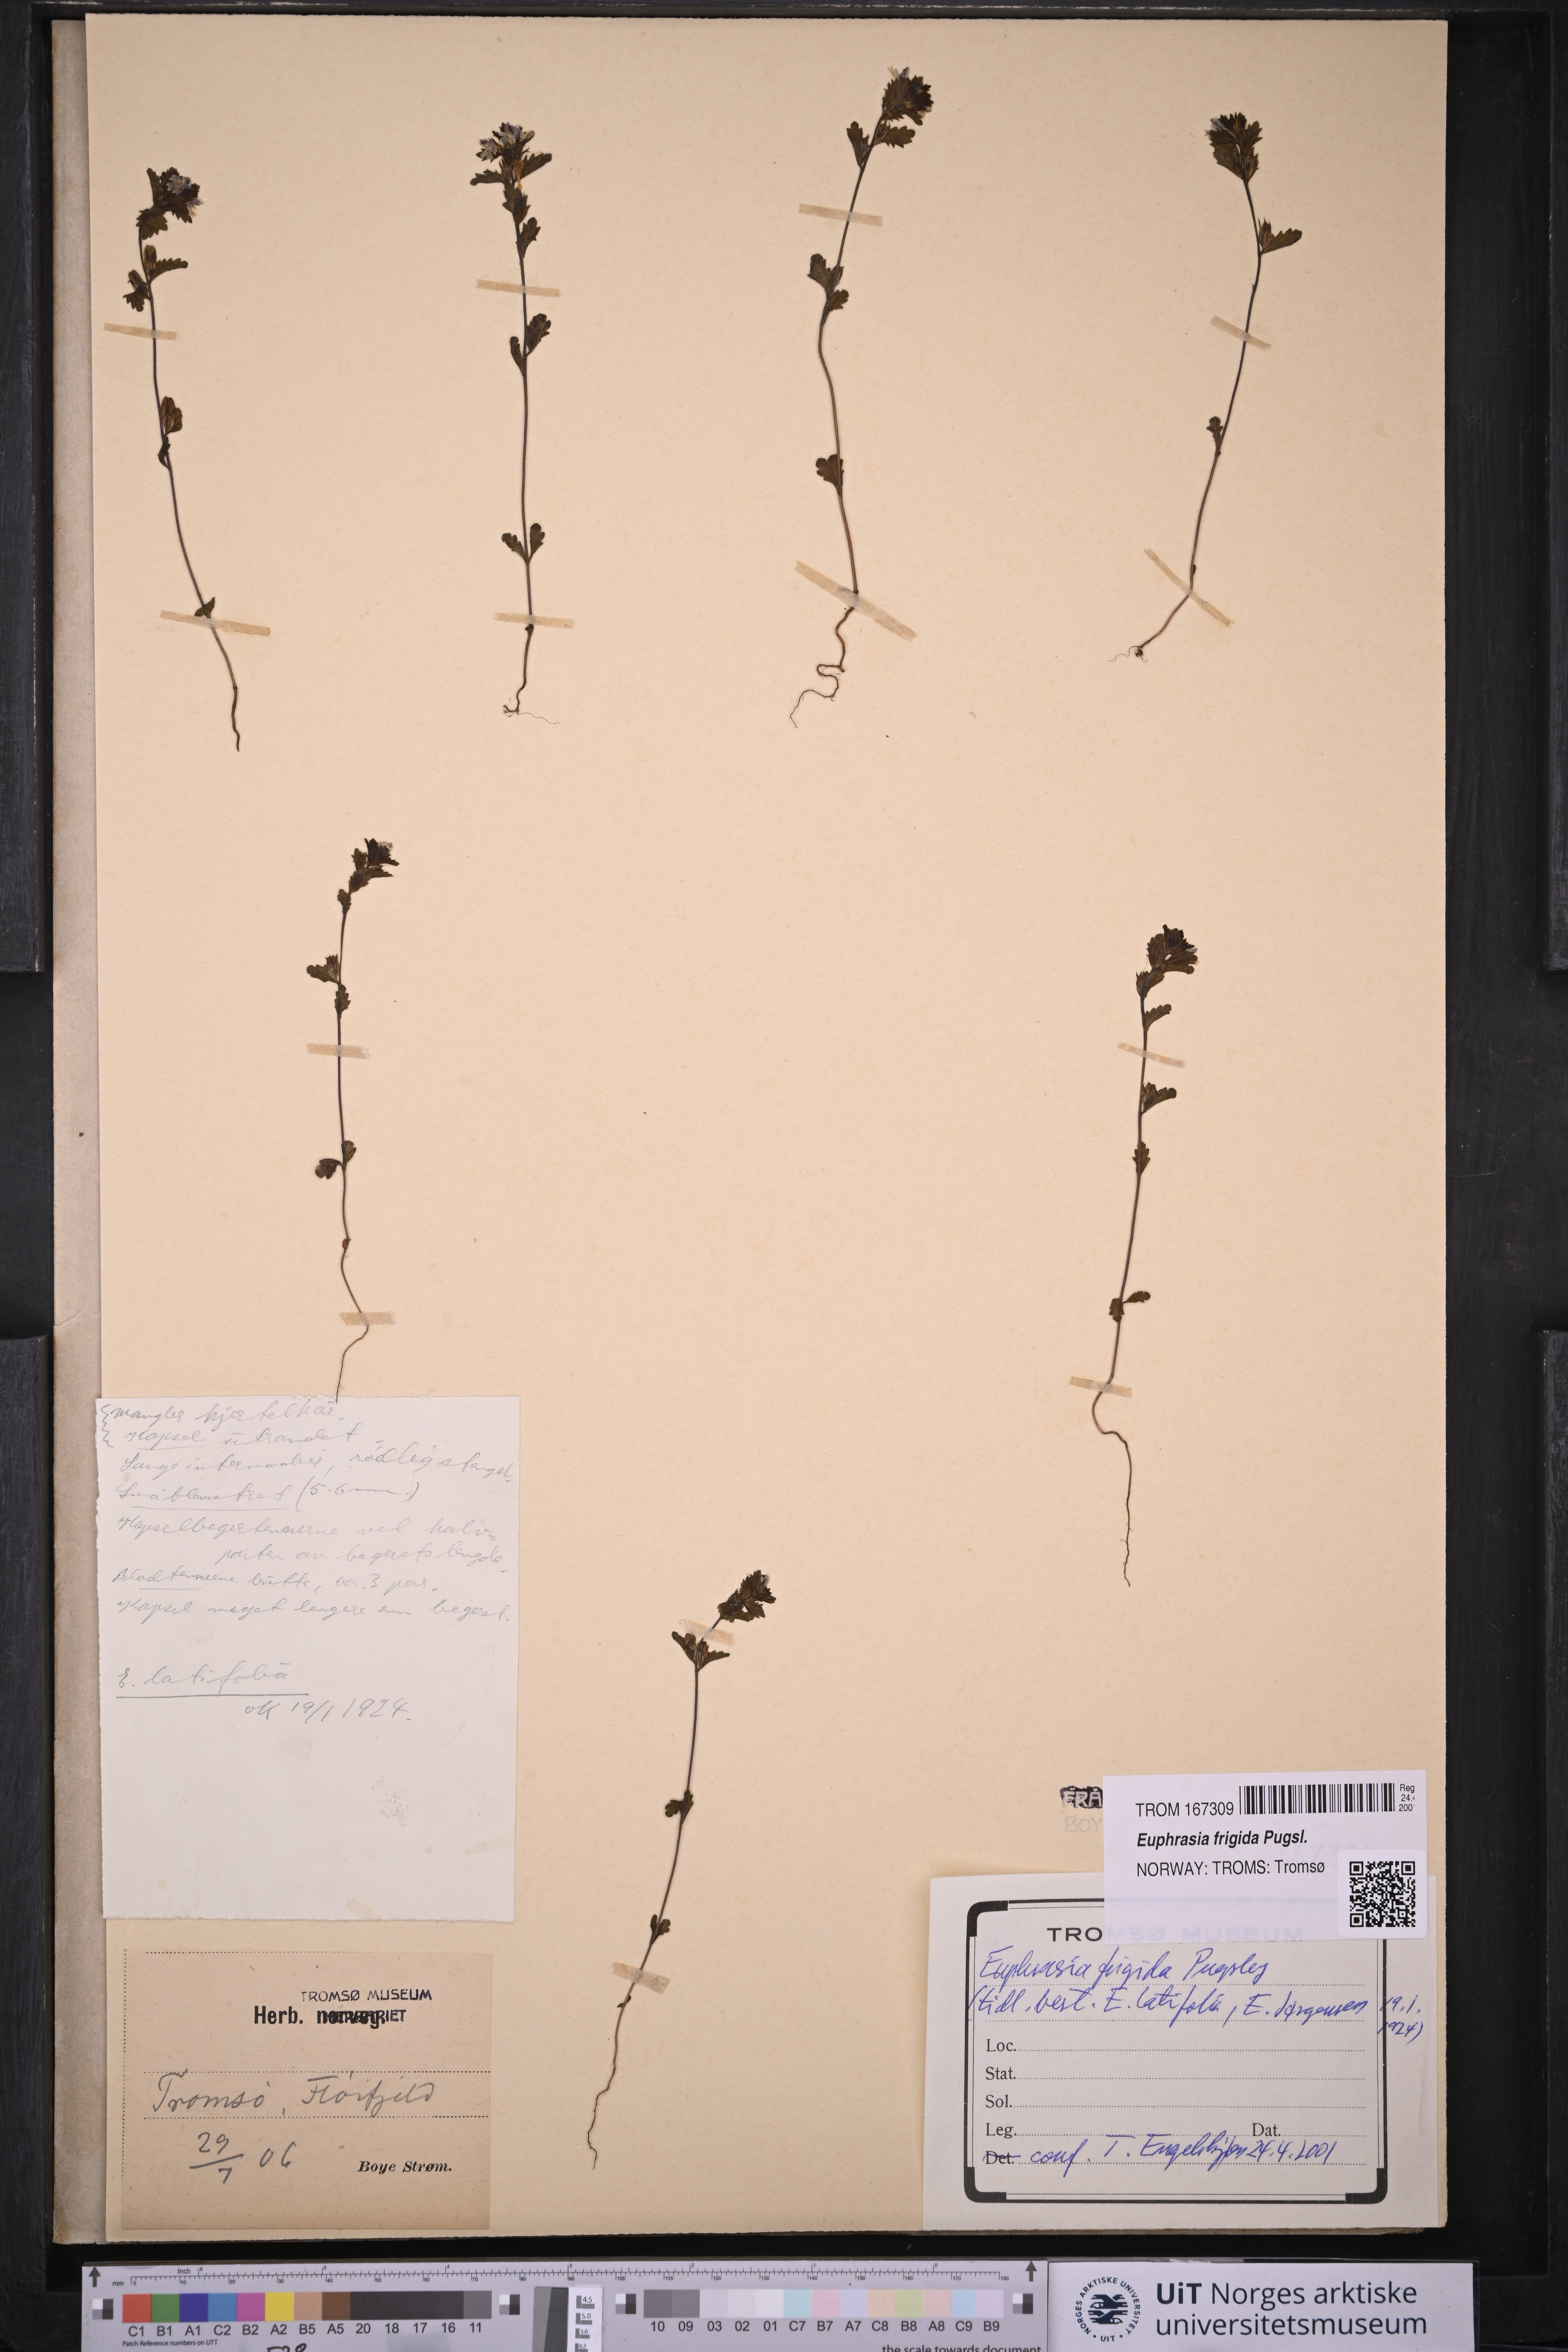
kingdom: Plantae
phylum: Tracheophyta
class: Magnoliopsida
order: Lamiales
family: Orobanchaceae
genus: Euphrasia
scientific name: Euphrasia frigida
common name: An eyebright
